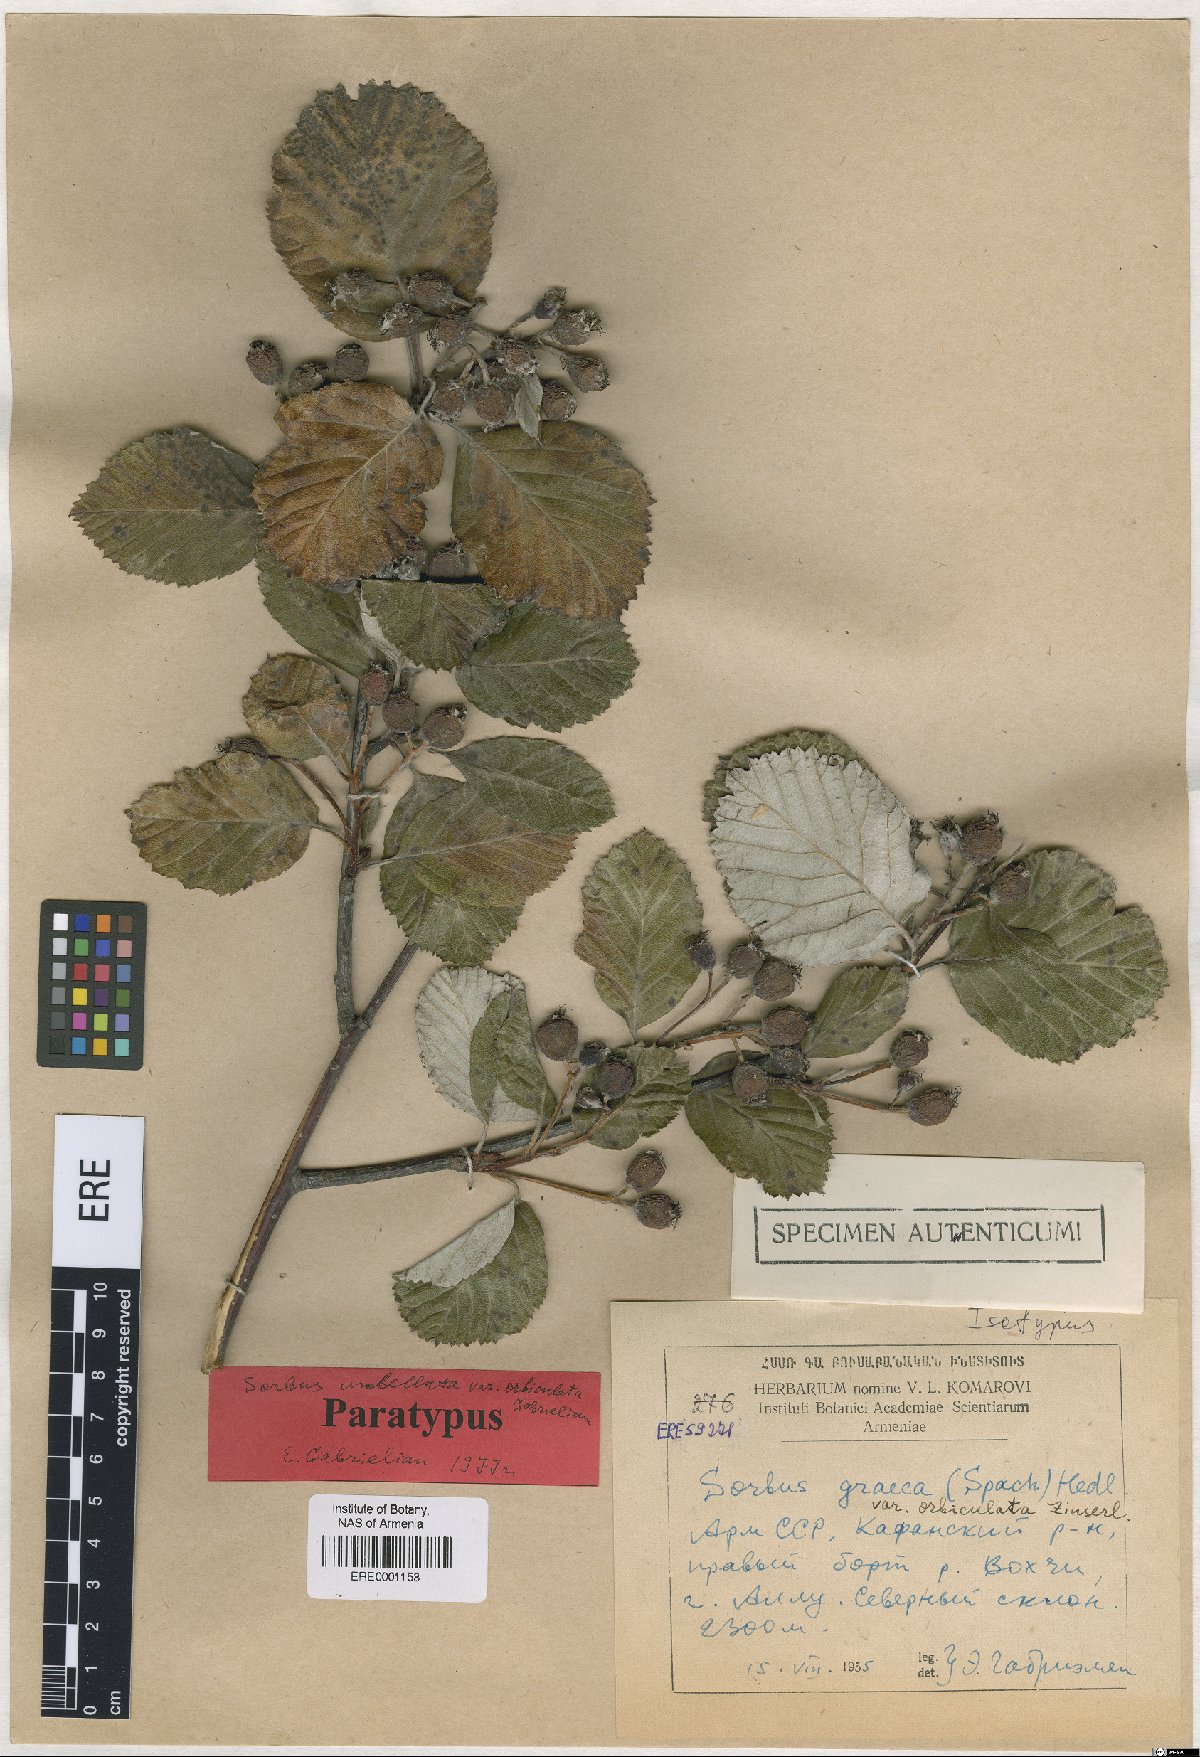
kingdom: Plantae
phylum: Tracheophyta
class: Magnoliopsida
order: Rosales
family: Rosaceae
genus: Aria
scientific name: Aria umbellata
